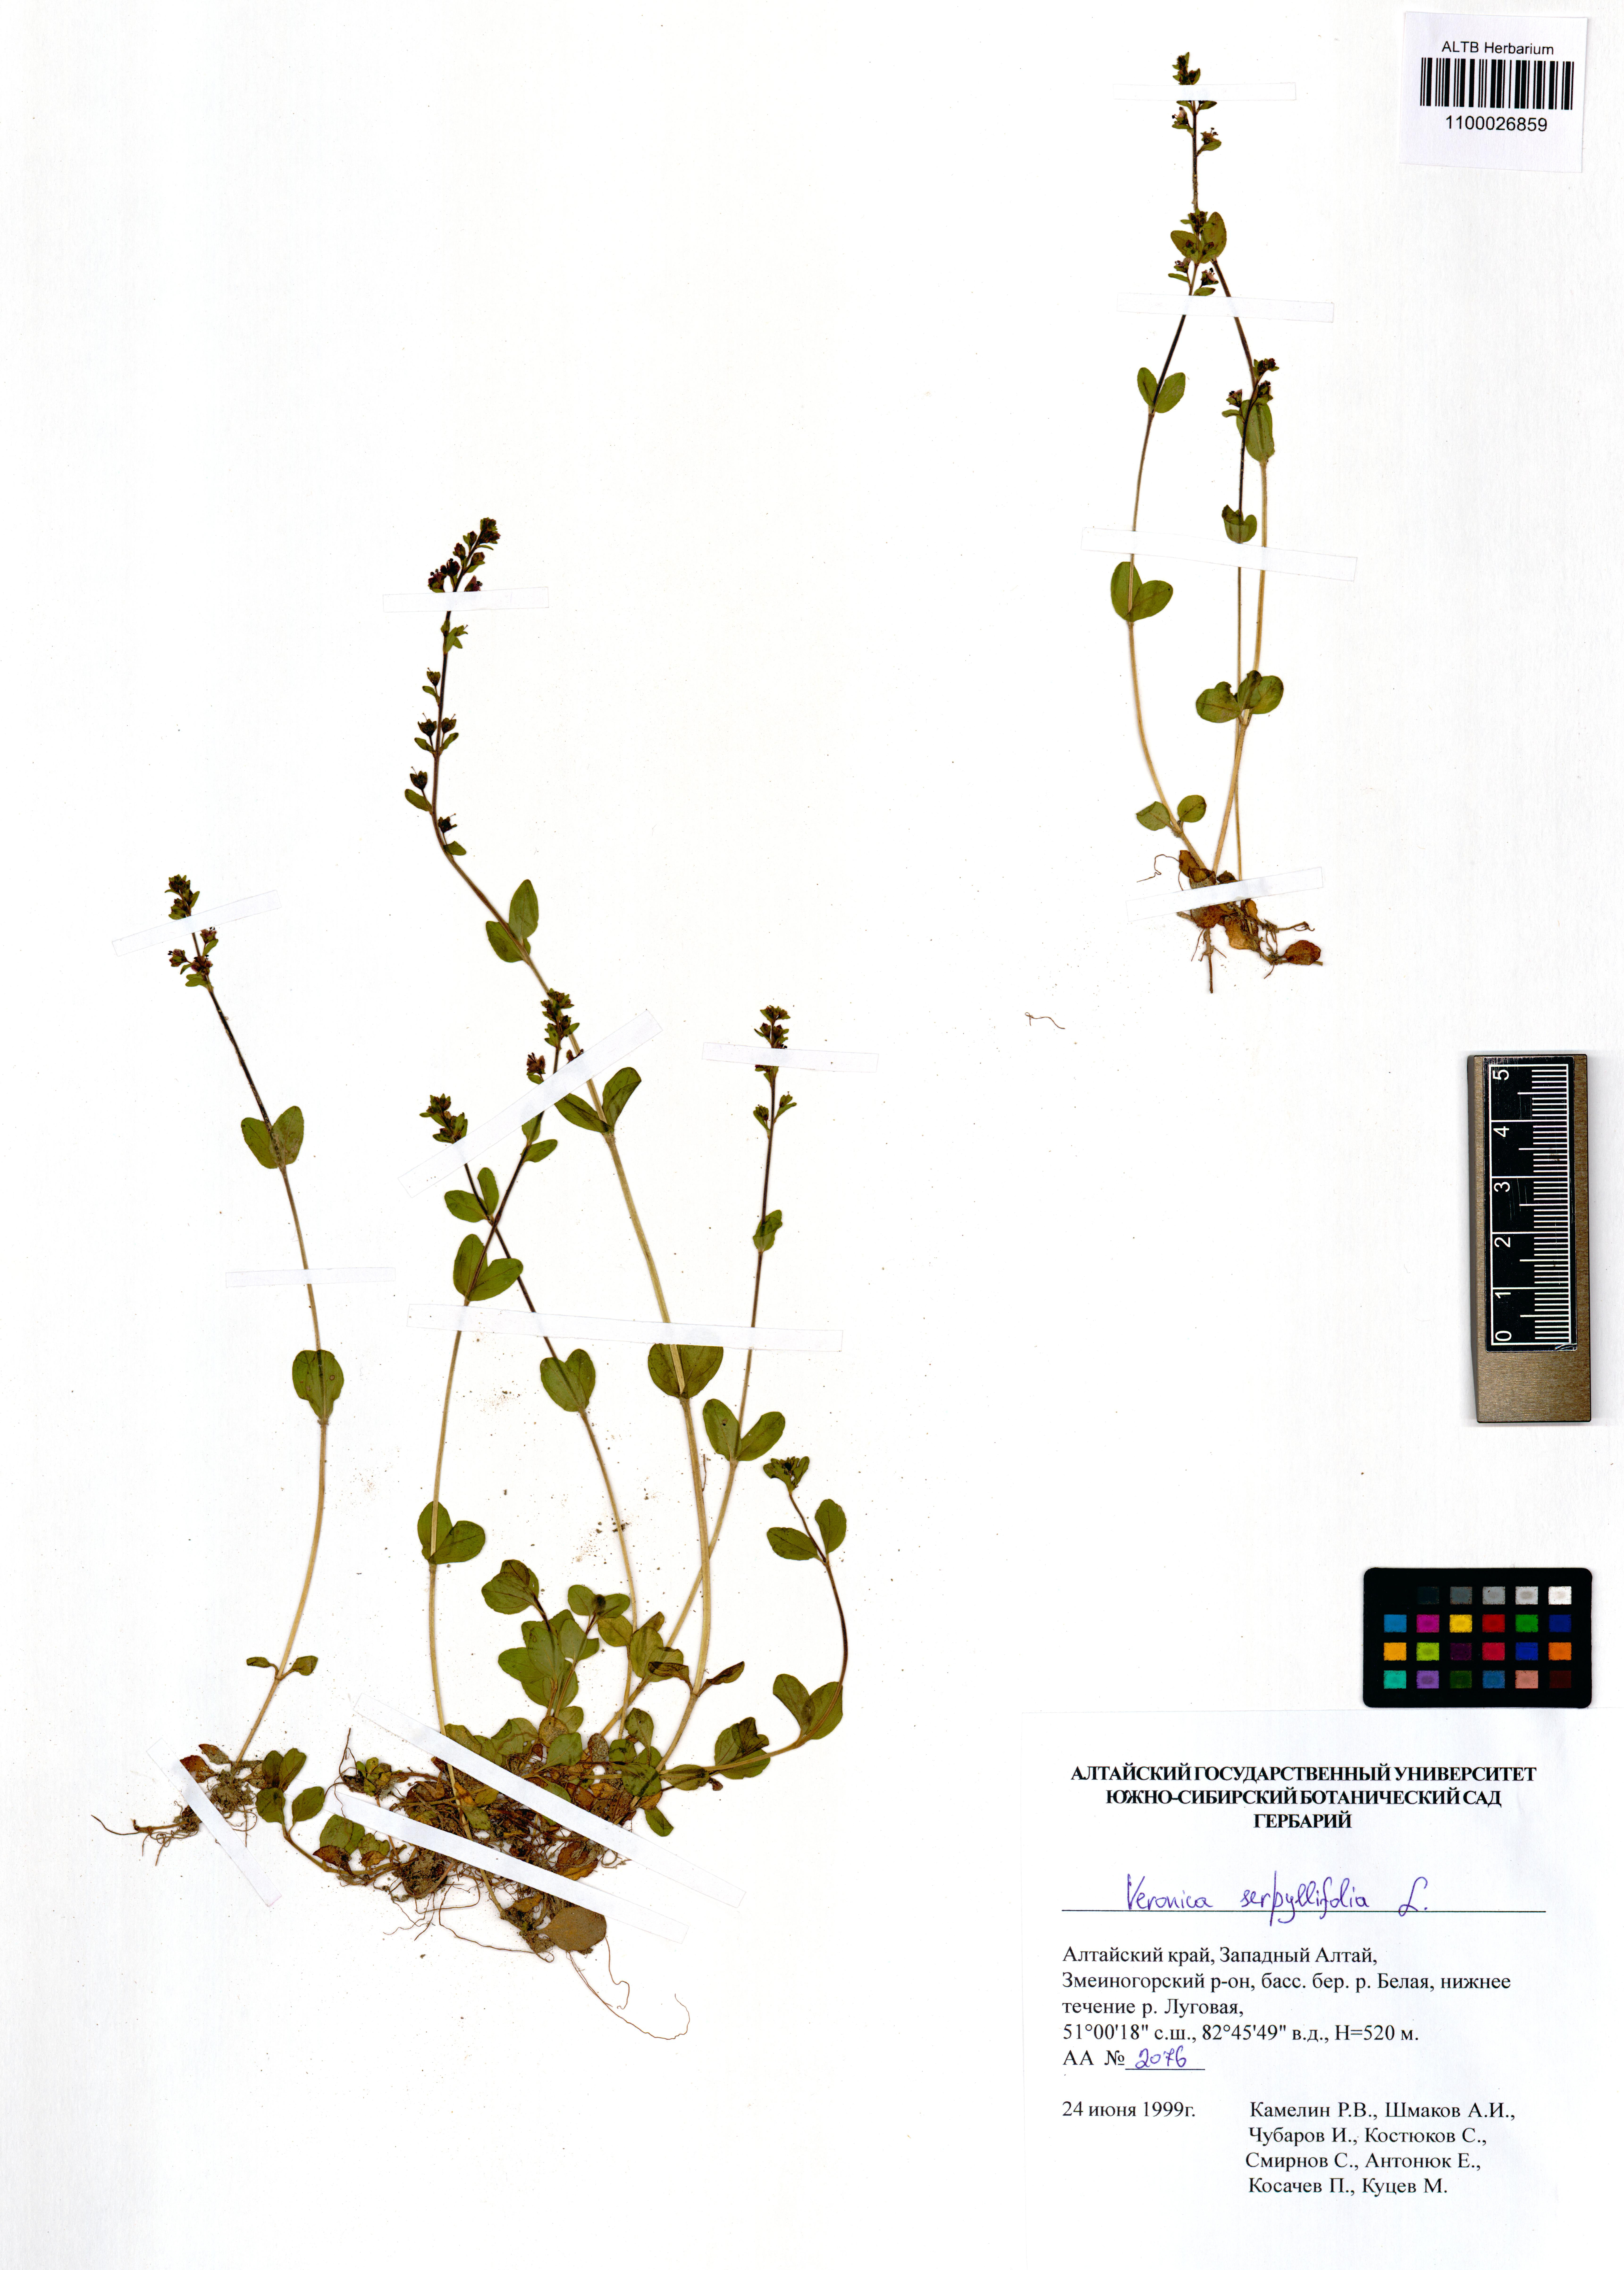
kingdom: Plantae
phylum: Tracheophyta
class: Magnoliopsida
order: Lamiales
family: Plantaginaceae
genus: Veronica
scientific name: Veronica serpyllifolia
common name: Thyme-leaved speedwell
